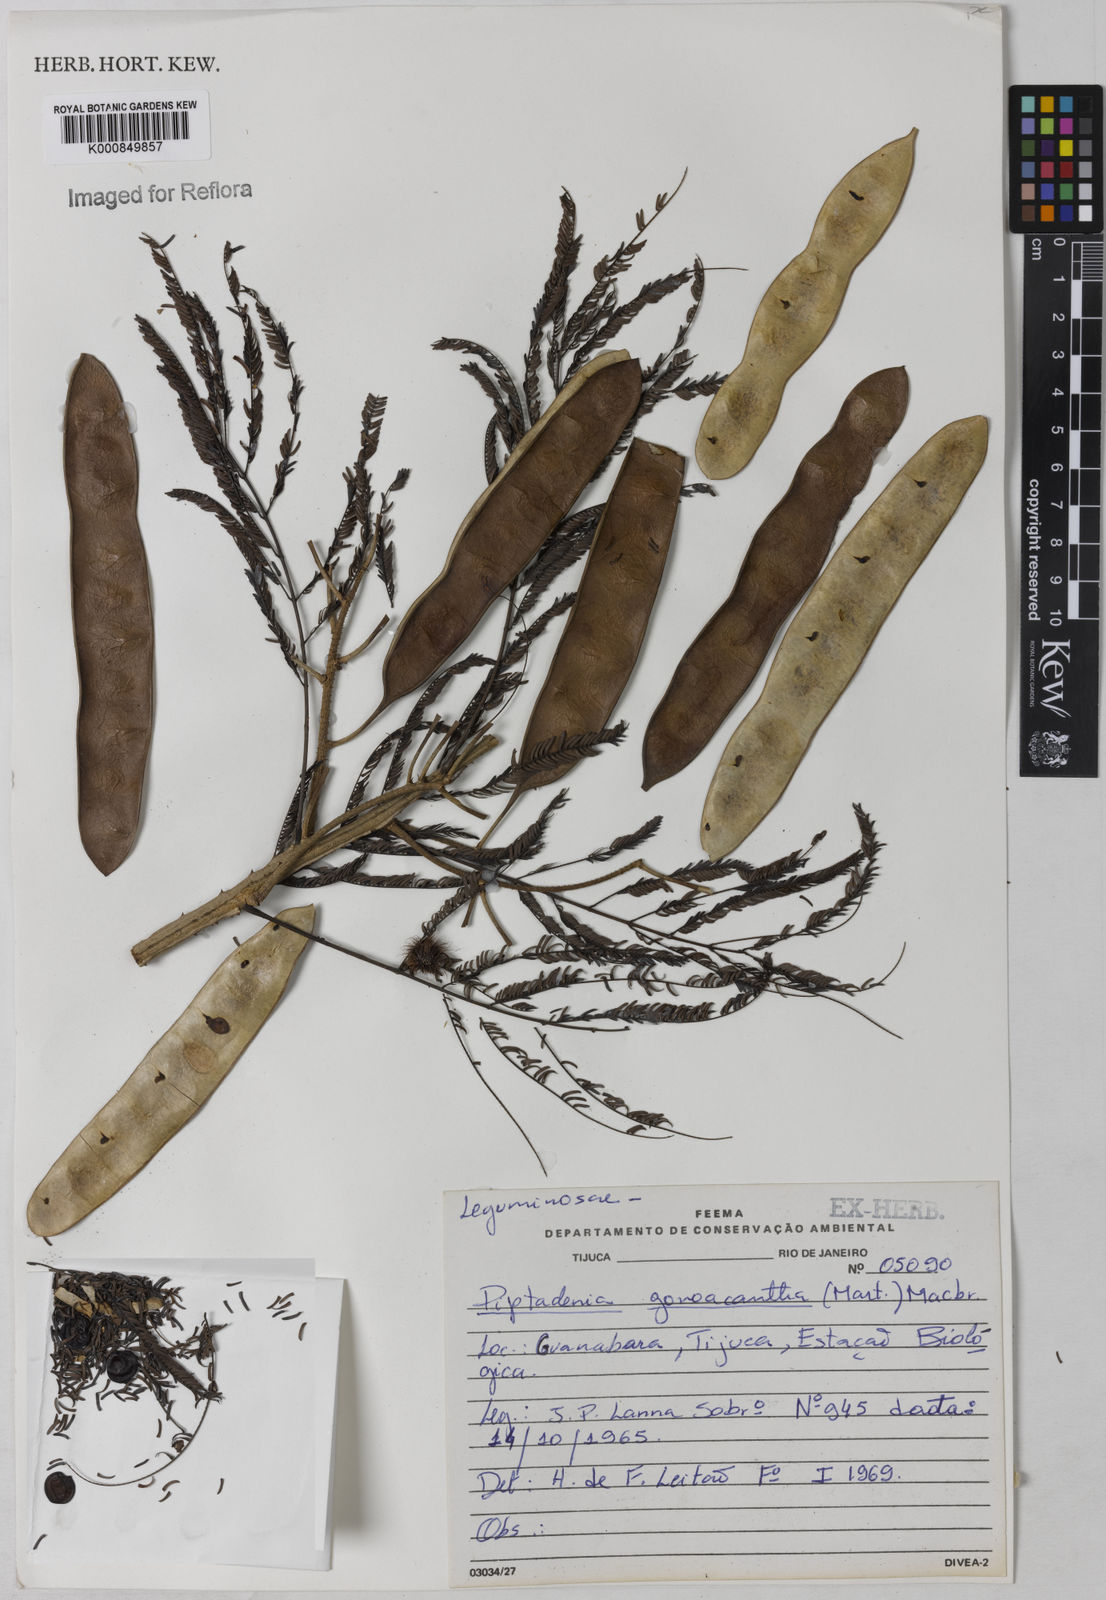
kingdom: Plantae
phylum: Tracheophyta
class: Magnoliopsida
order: Fabales
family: Fabaceae
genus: Piptadenia
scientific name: Piptadenia gonoacantha
